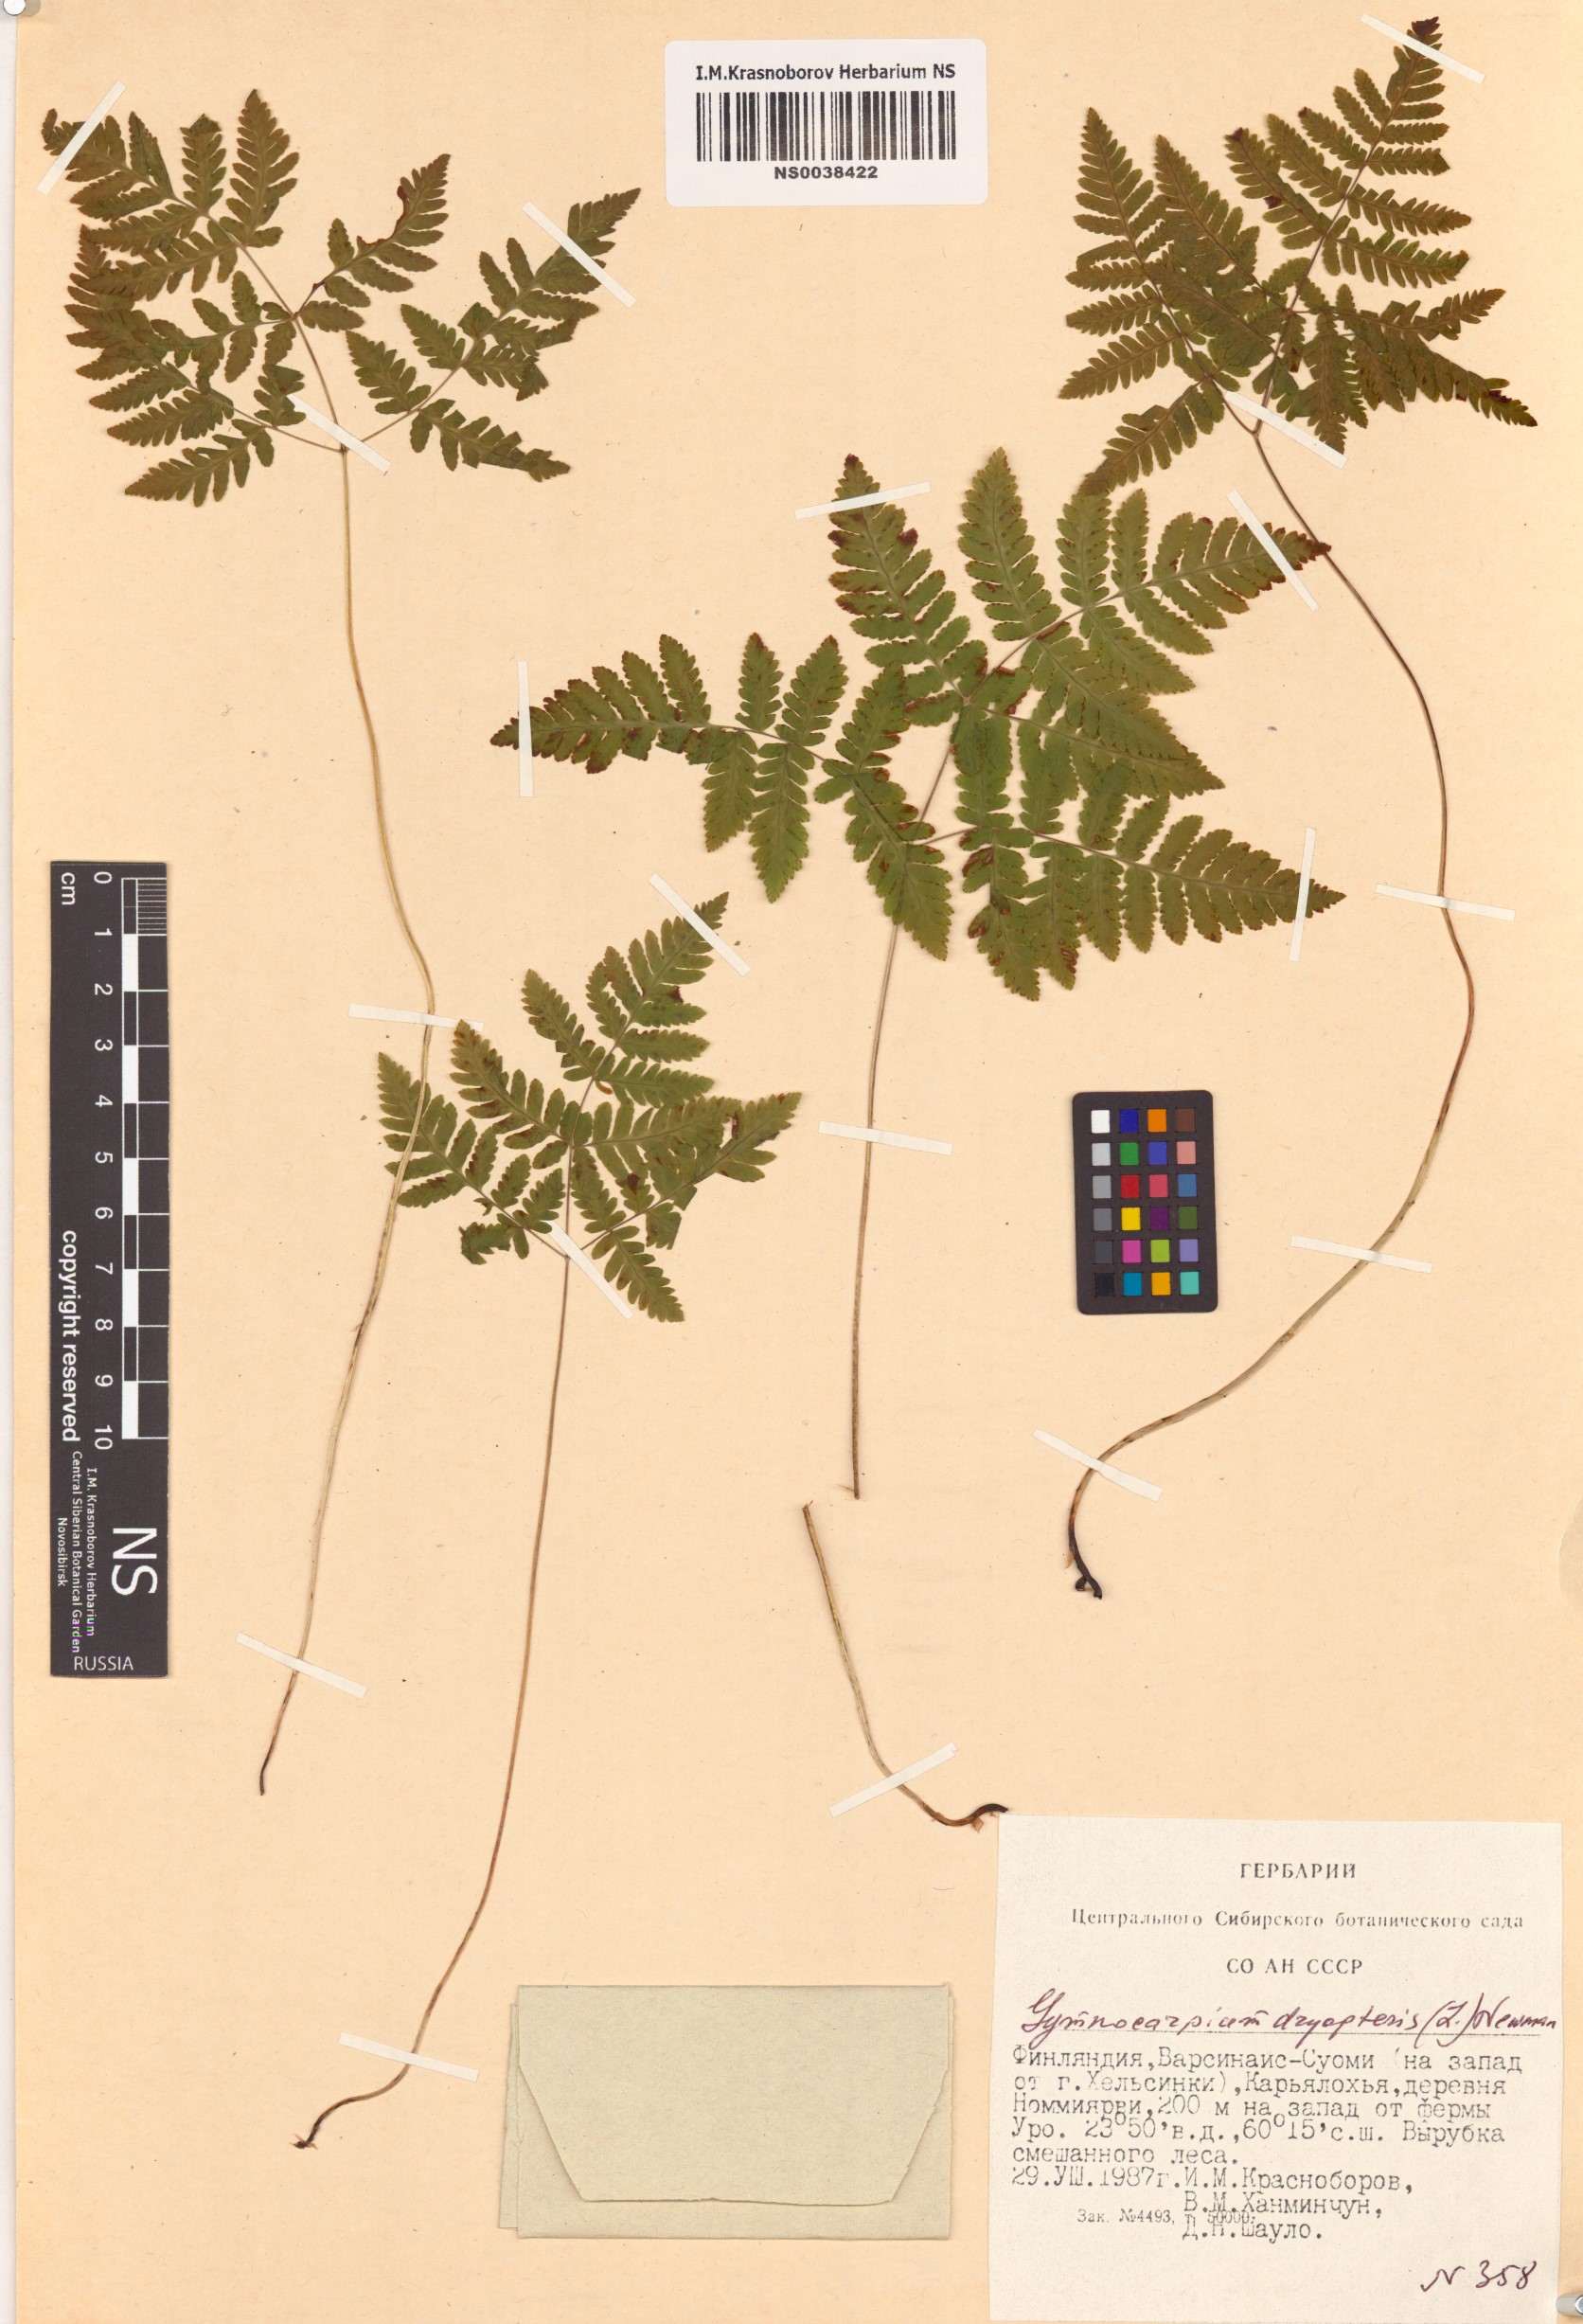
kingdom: Plantae
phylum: Tracheophyta
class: Polypodiopsida
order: Polypodiales
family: Cystopteridaceae
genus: Gymnocarpium
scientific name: Gymnocarpium dryopteris
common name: Oak fern
